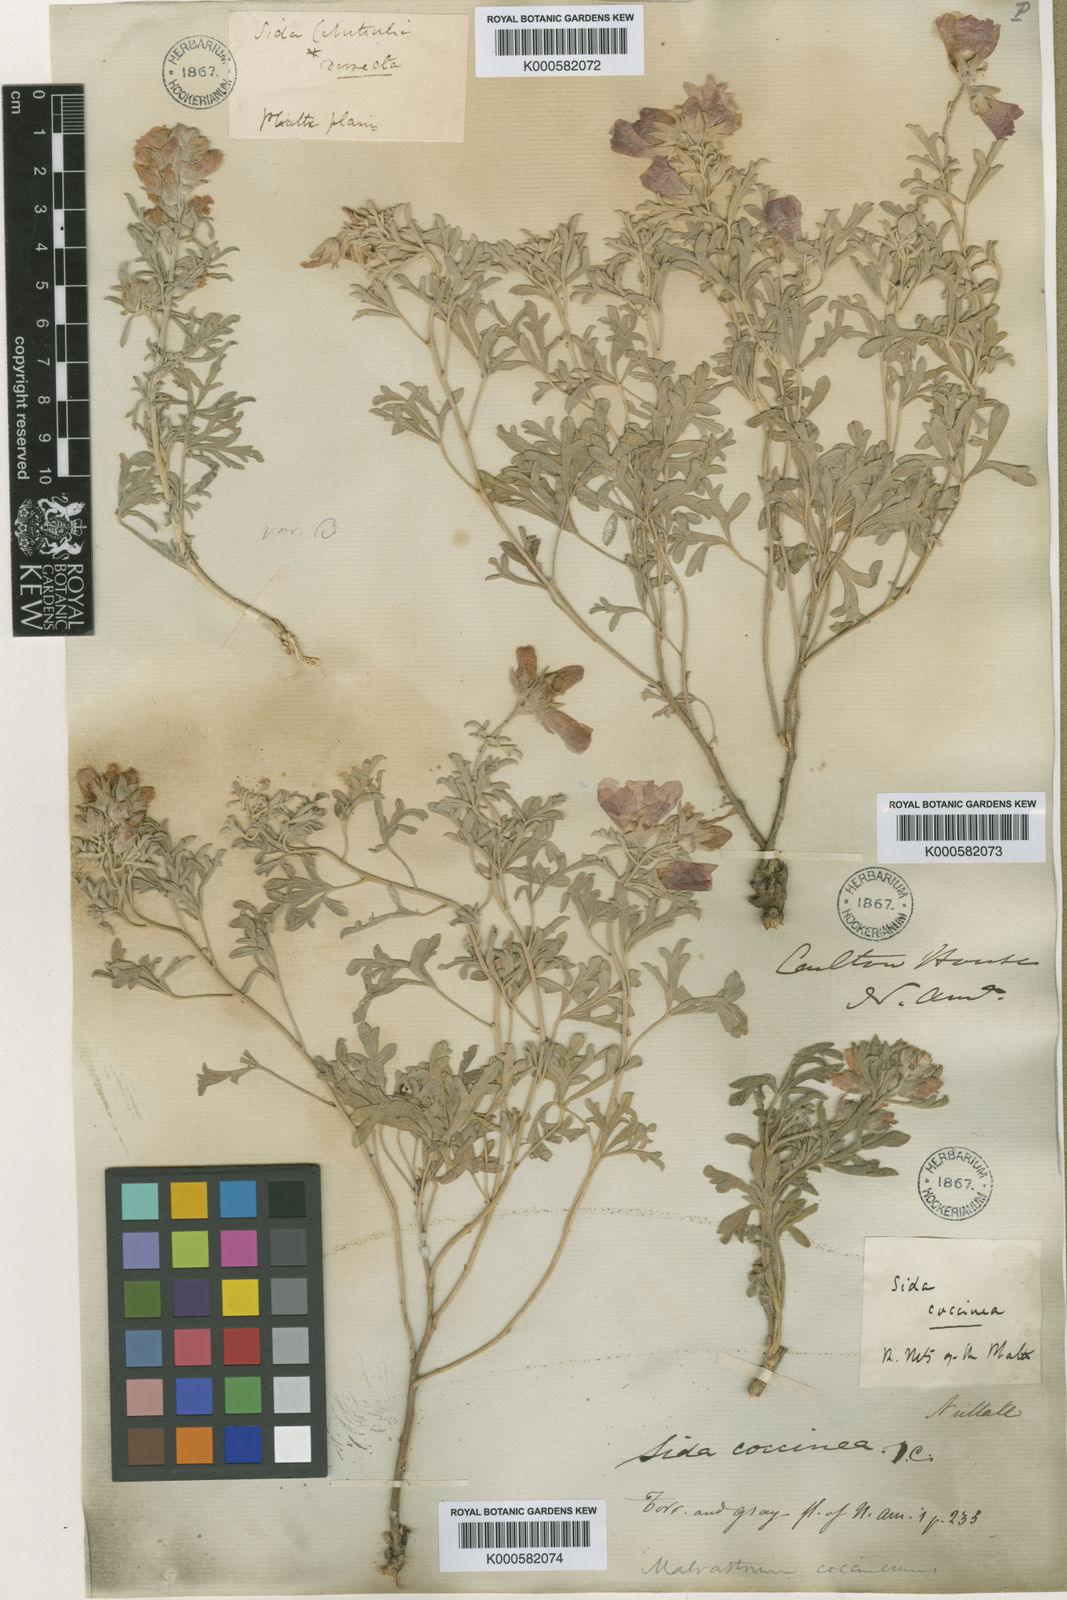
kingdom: Plantae
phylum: Tracheophyta
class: Magnoliopsida
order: Malvales
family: Malvaceae
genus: Sphaeralcea
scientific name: Sphaeralcea coccinea
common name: Moss-rose
